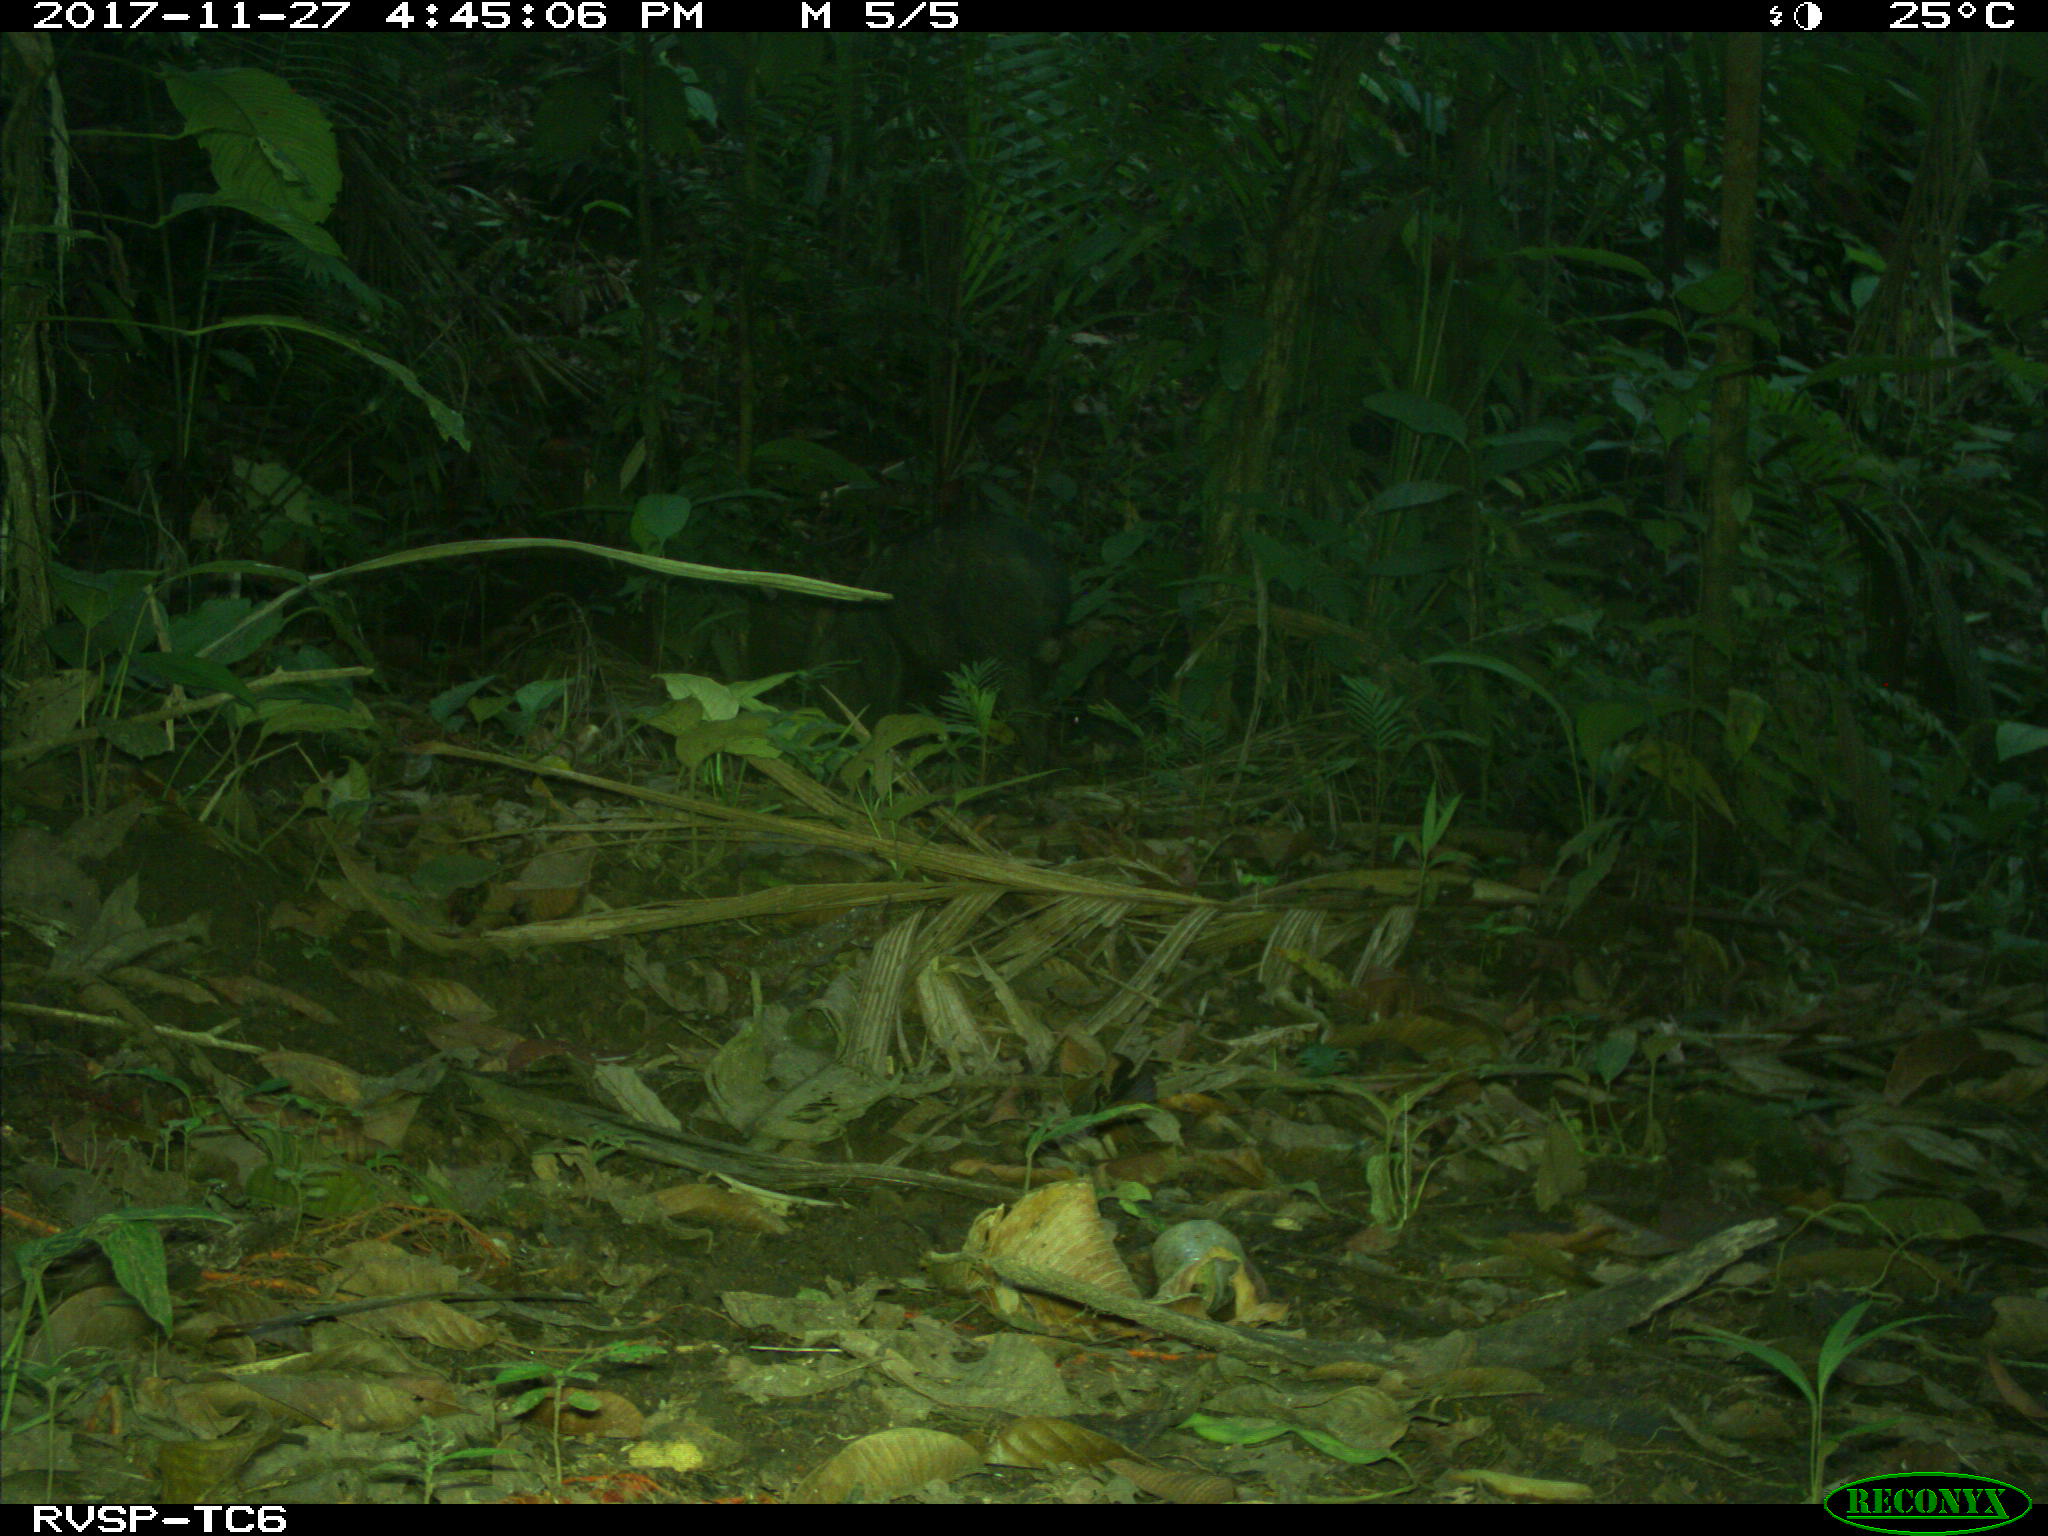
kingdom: Animalia
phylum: Chordata
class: Mammalia
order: Artiodactyla
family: Tayassuidae
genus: Pecari
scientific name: Pecari tajacu
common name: Collared peccary
